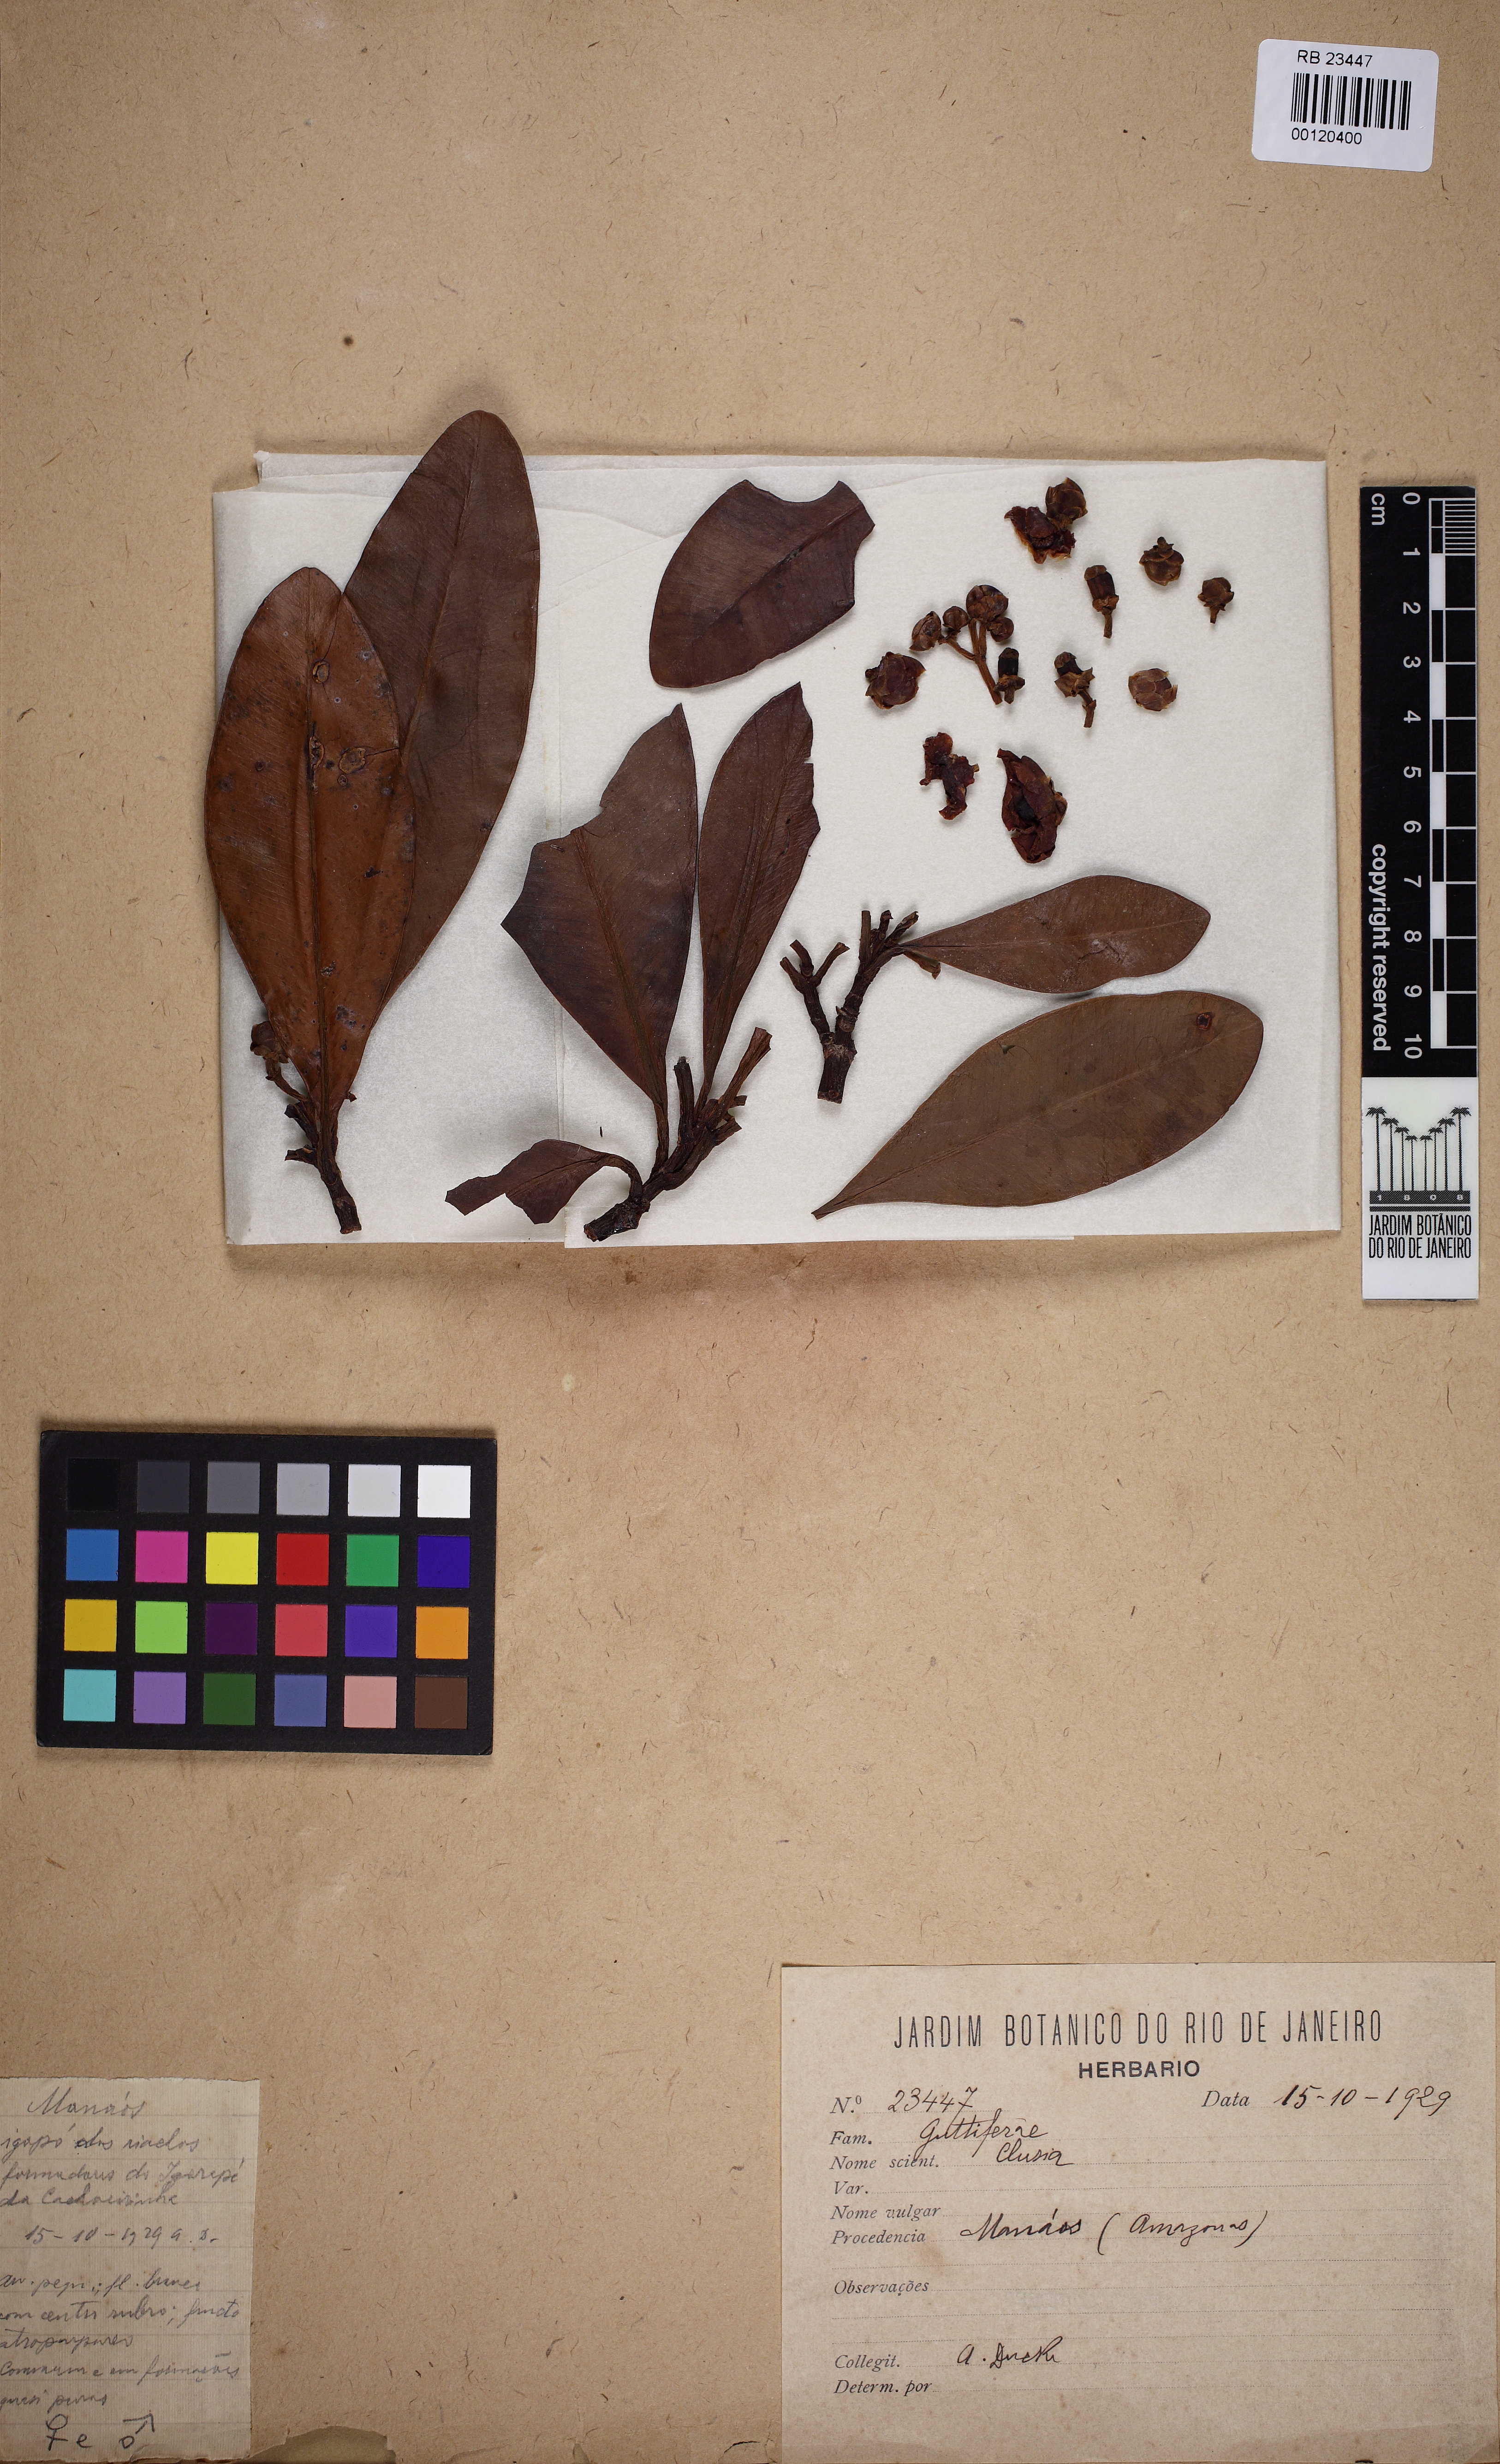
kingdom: Plantae
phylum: Tracheophyta
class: Magnoliopsida
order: Malpighiales
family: Clusiaceae
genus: Clusia
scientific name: Clusia renggerioides
